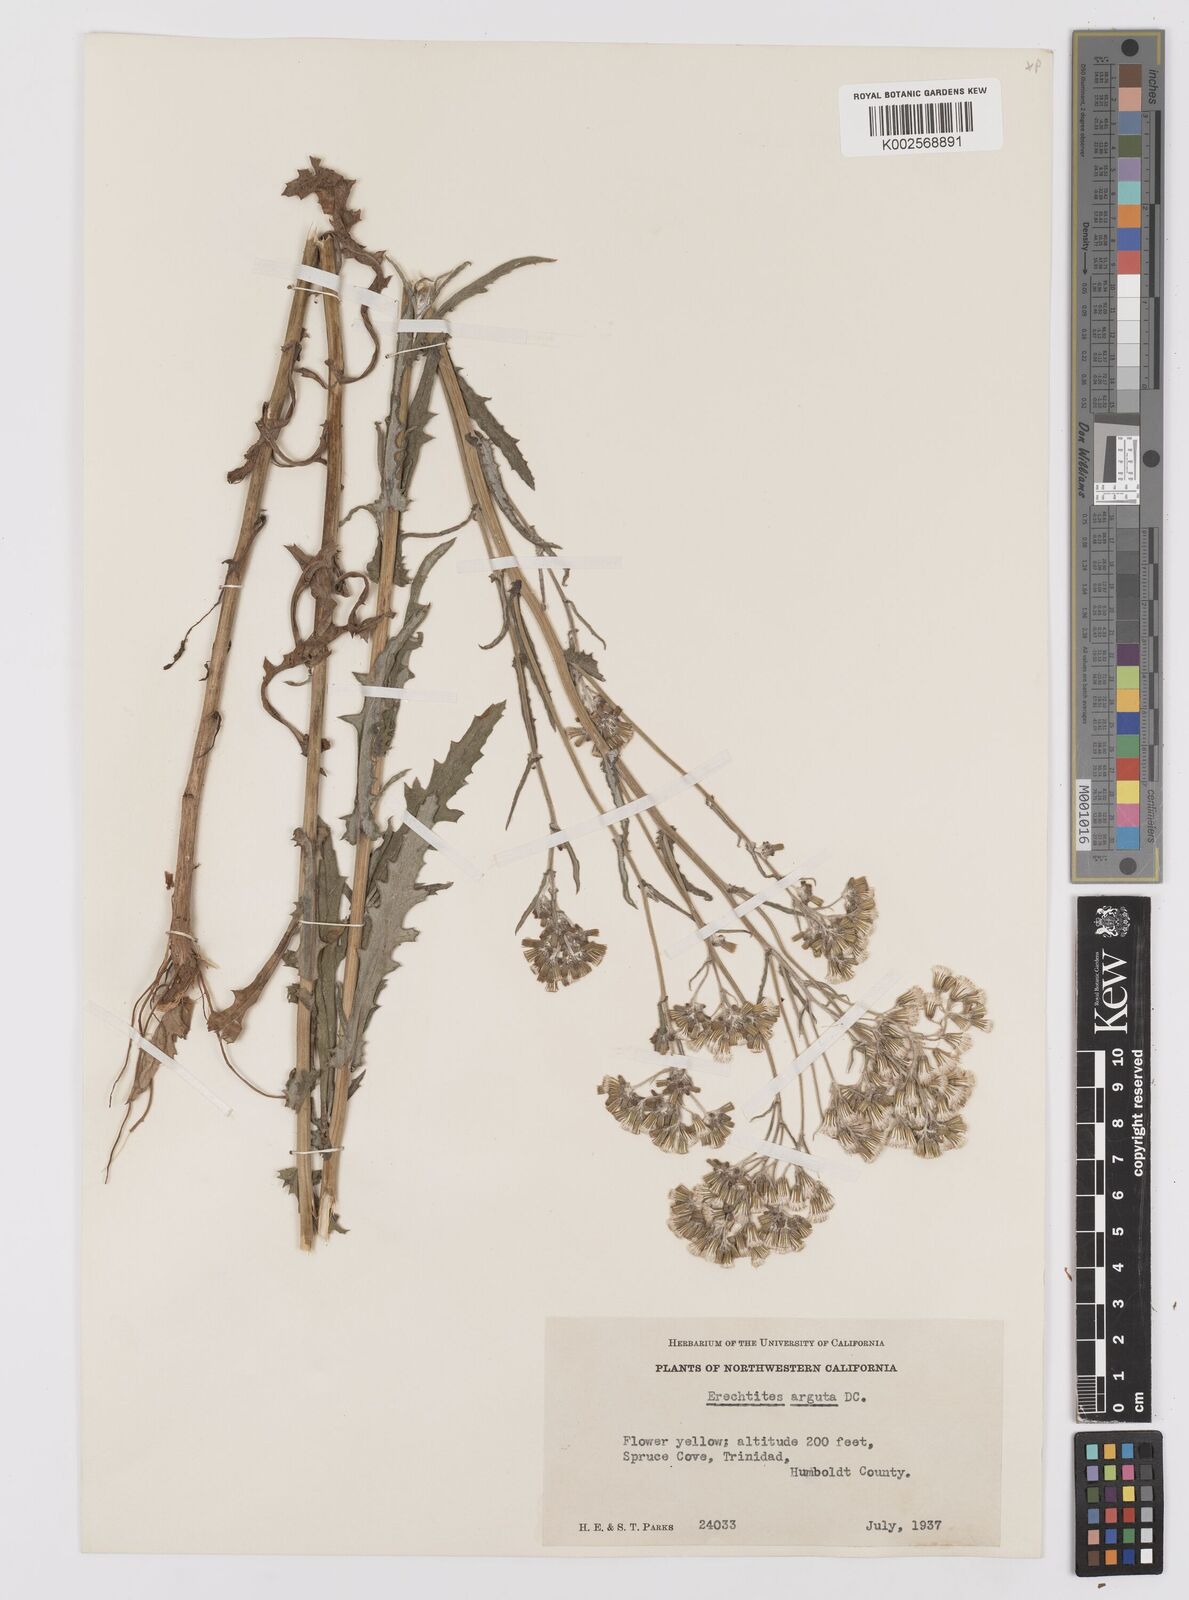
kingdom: Plantae
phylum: Tracheophyta
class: Magnoliopsida
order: Asterales
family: Asteraceae
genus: Senecio
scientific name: Senecio
